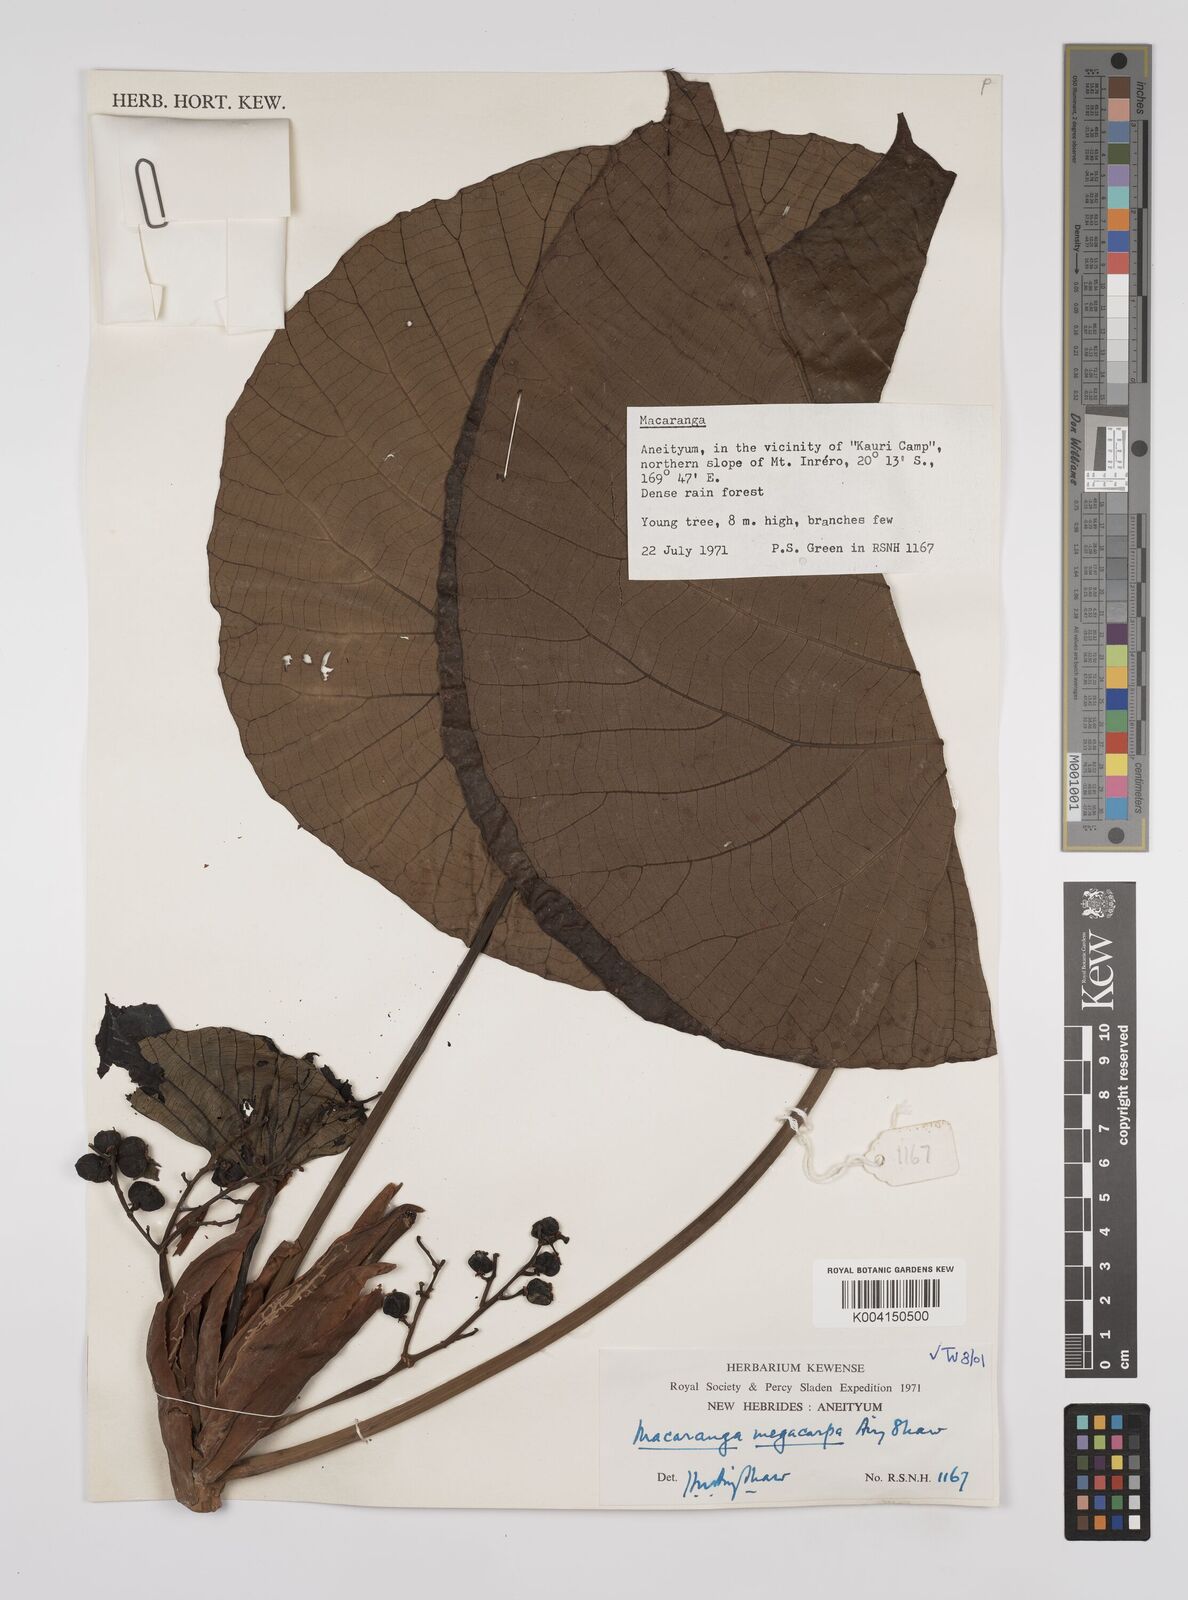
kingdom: Plantae
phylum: Tracheophyta
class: Magnoliopsida
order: Malpighiales
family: Euphorbiaceae
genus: Macaranga
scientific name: Macaranga megacarpa
